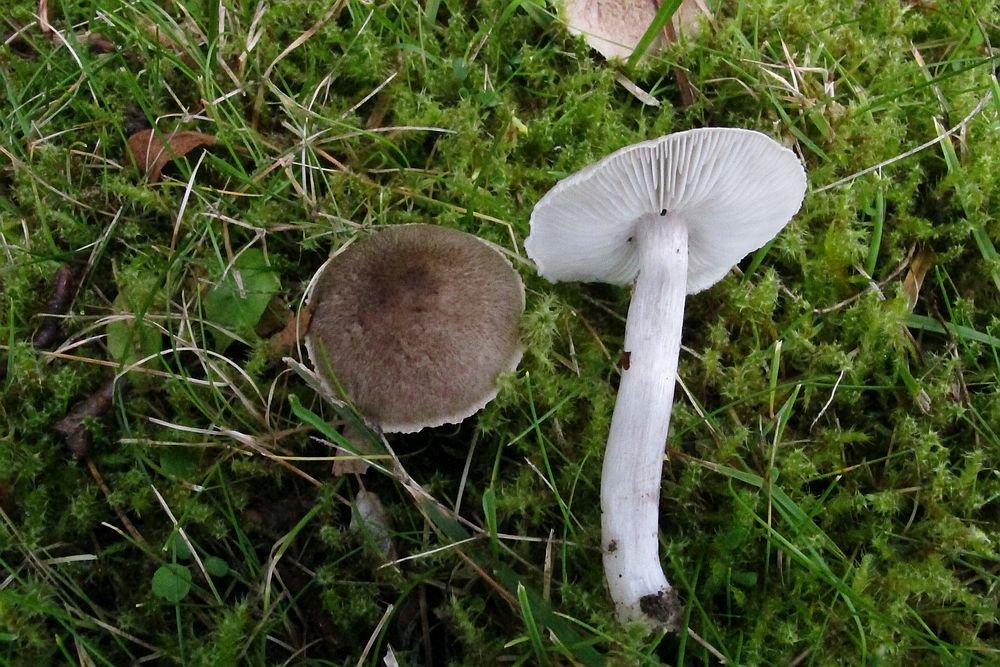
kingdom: Fungi
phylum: Basidiomycota
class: Agaricomycetes
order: Agaricales
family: Tricholomataceae
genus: Tricholoma
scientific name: Tricholoma argyraceum
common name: slør-ridderhat
